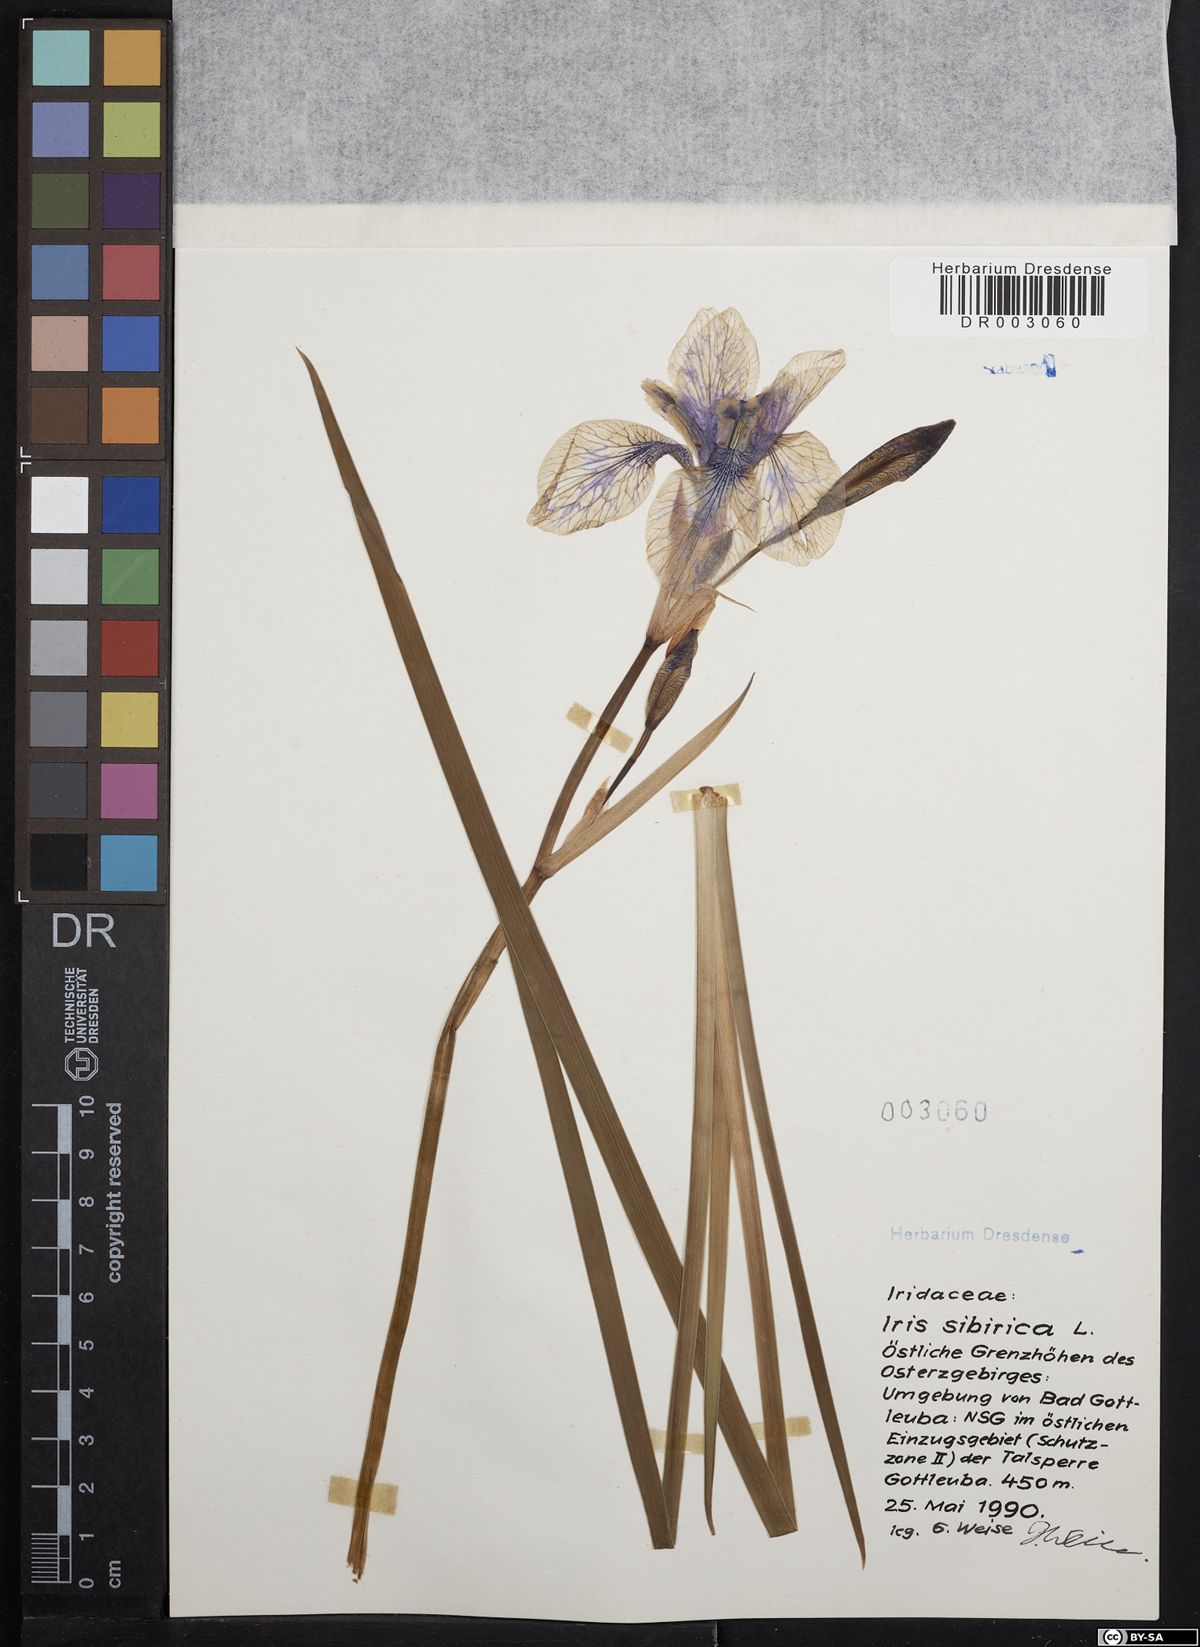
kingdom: Plantae
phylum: Tracheophyta
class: Liliopsida
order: Asparagales
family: Iridaceae
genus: Iris
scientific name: Iris sibirica
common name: Siberian iris
